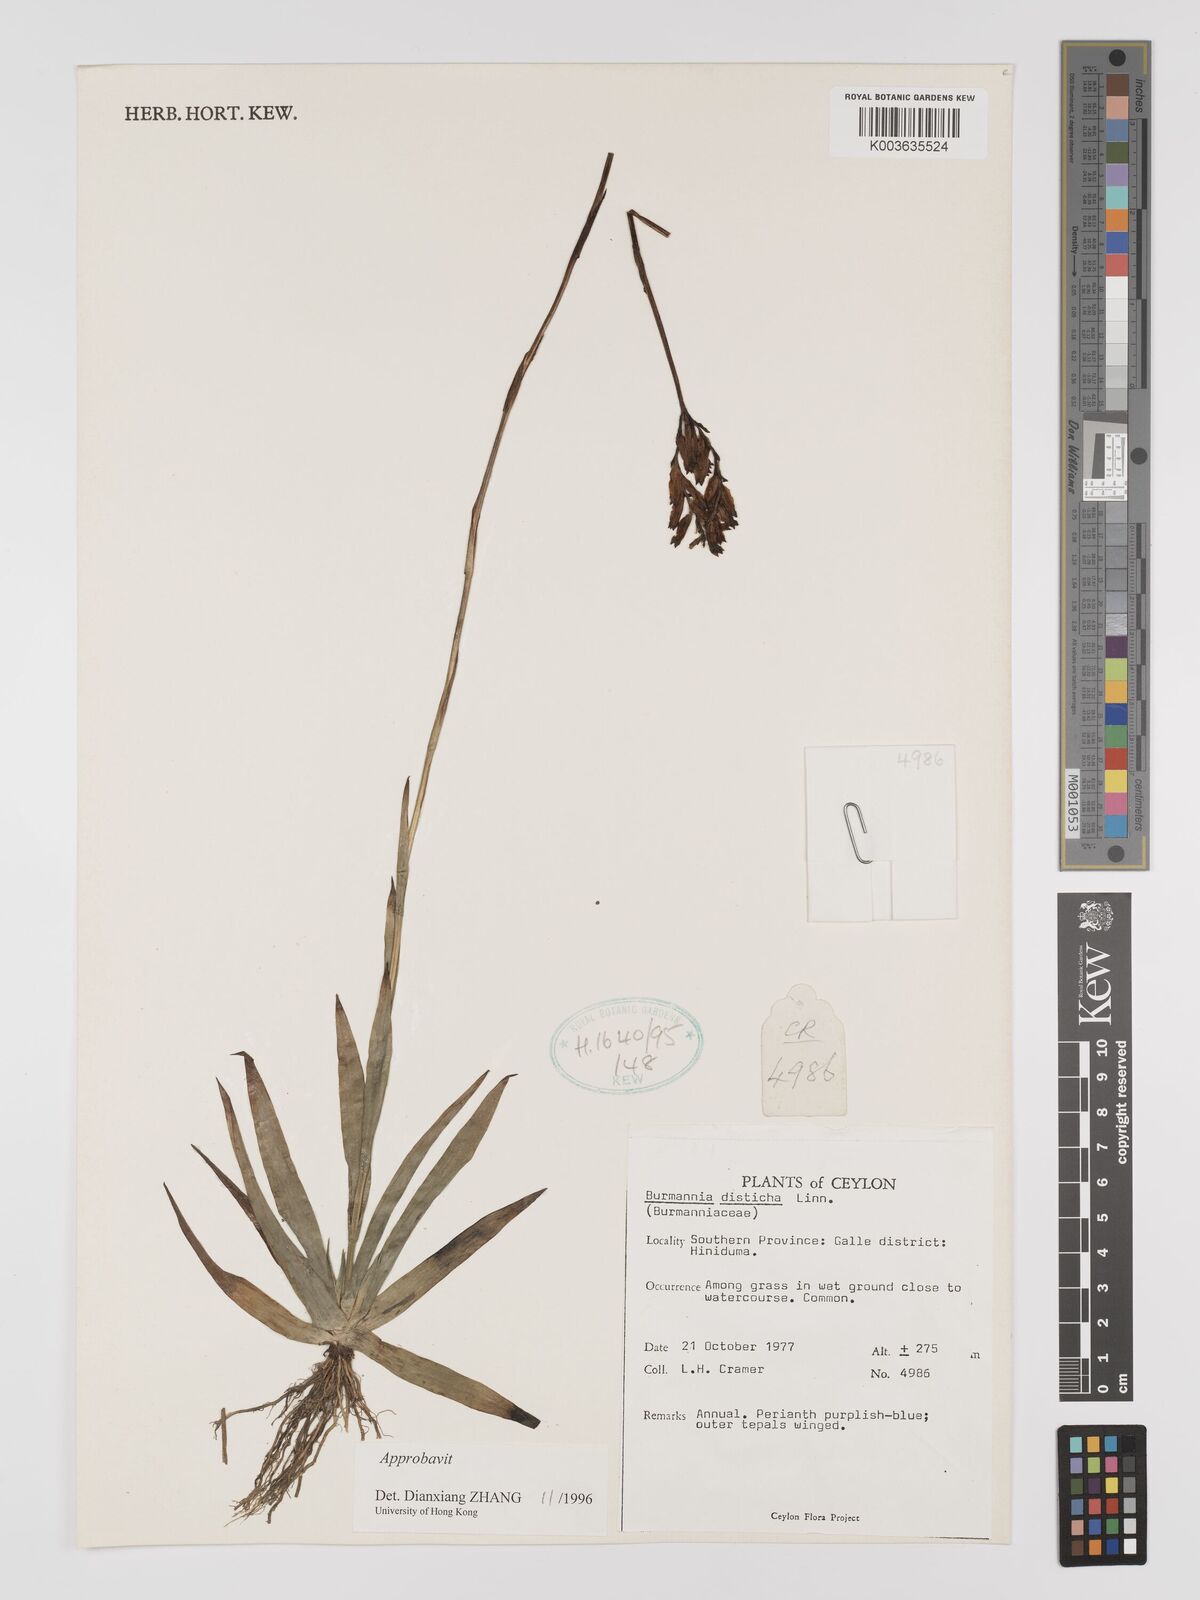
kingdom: Plantae
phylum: Tracheophyta
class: Liliopsida
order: Dioscoreales
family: Burmanniaceae
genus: Burmannia
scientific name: Burmannia disticha
